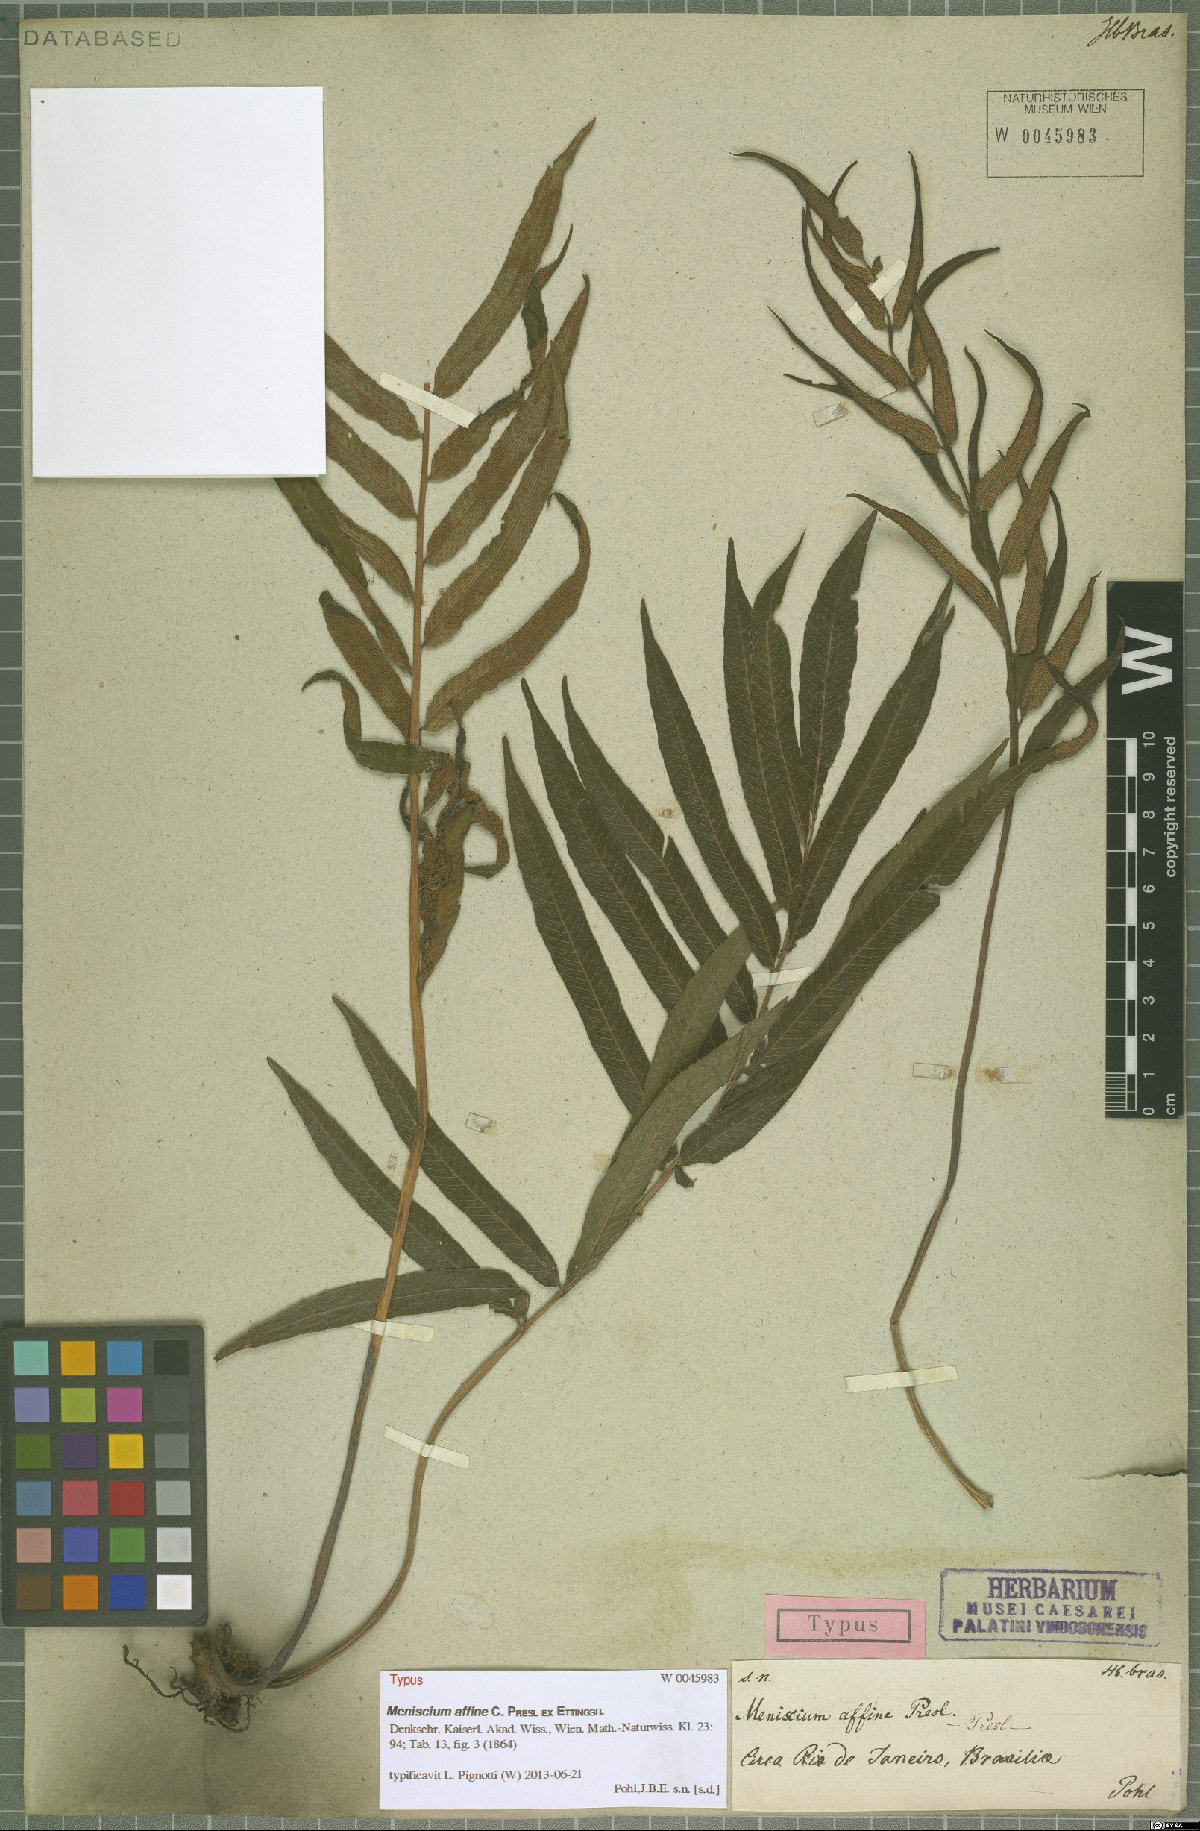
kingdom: Plantae
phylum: Tracheophyta
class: Polypodiopsida
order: Polypodiales
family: Thelypteridaceae
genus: Meniscium
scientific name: Meniscium reticulatum
